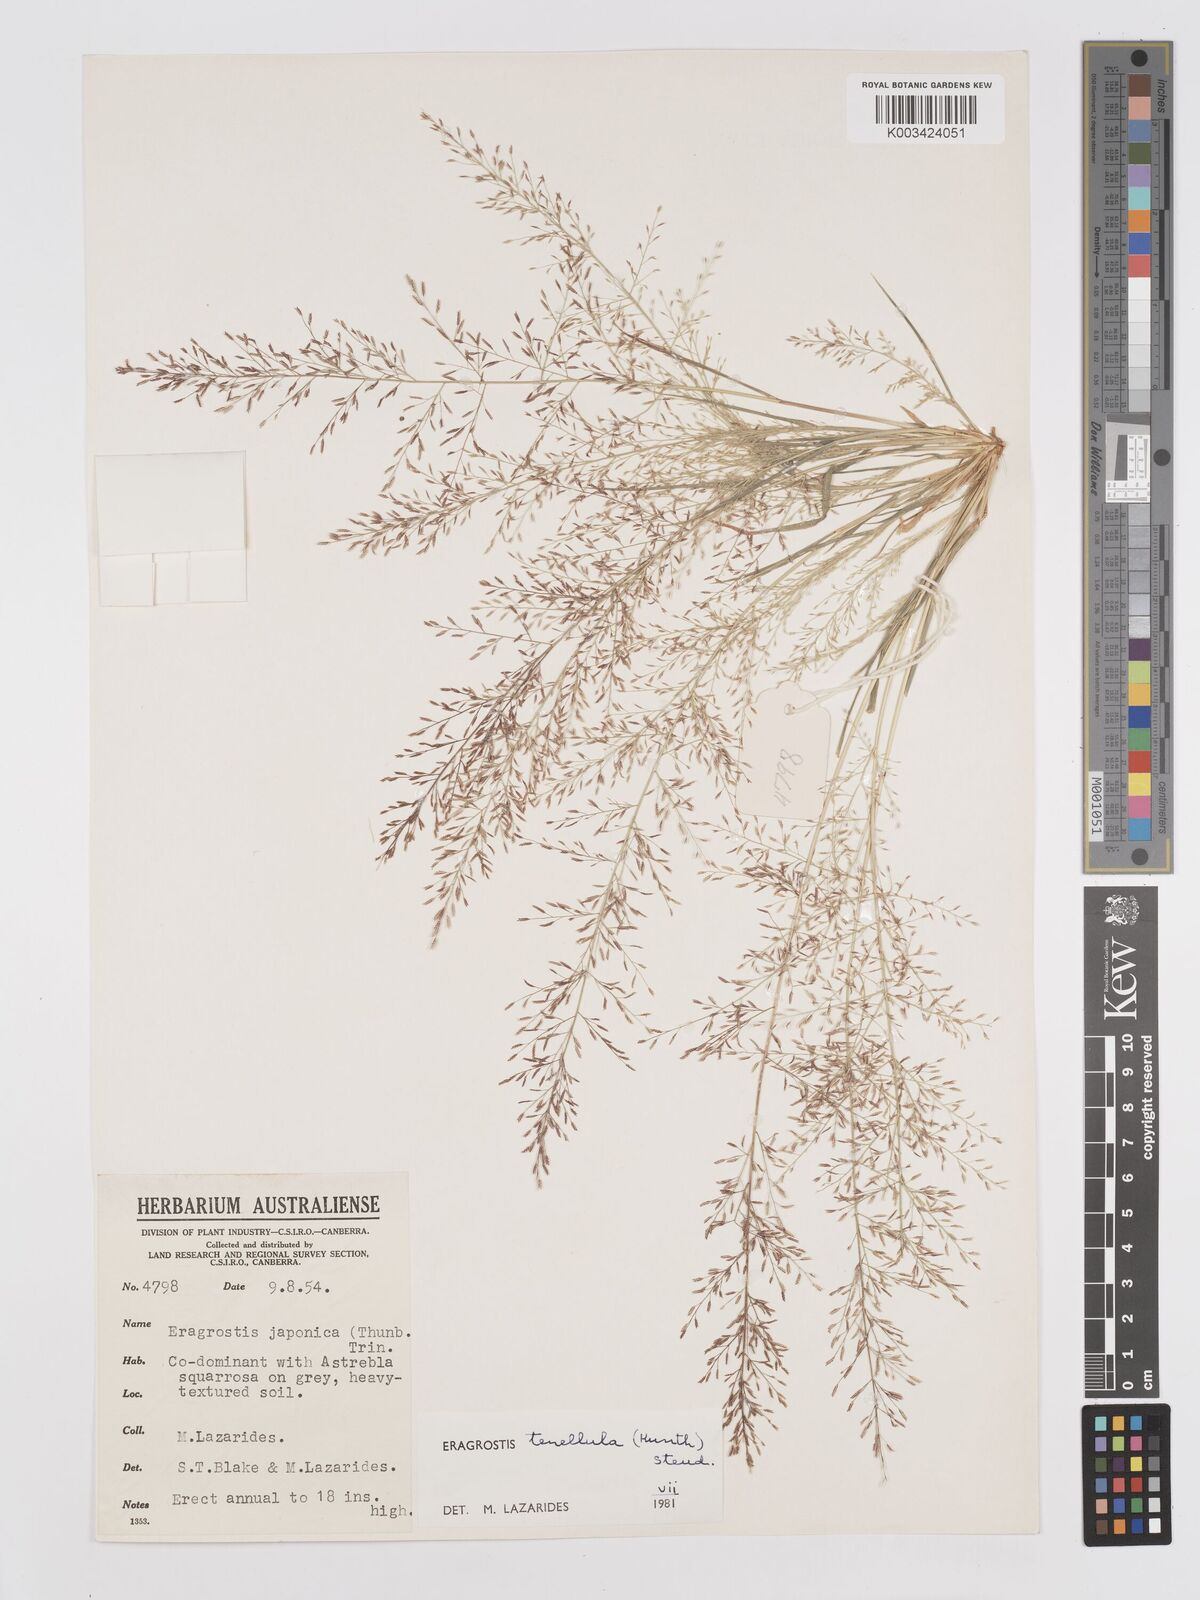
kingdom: Plantae
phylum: Tracheophyta
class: Liliopsida
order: Poales
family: Poaceae
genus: Eragrostis
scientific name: Eragrostis tenellula
